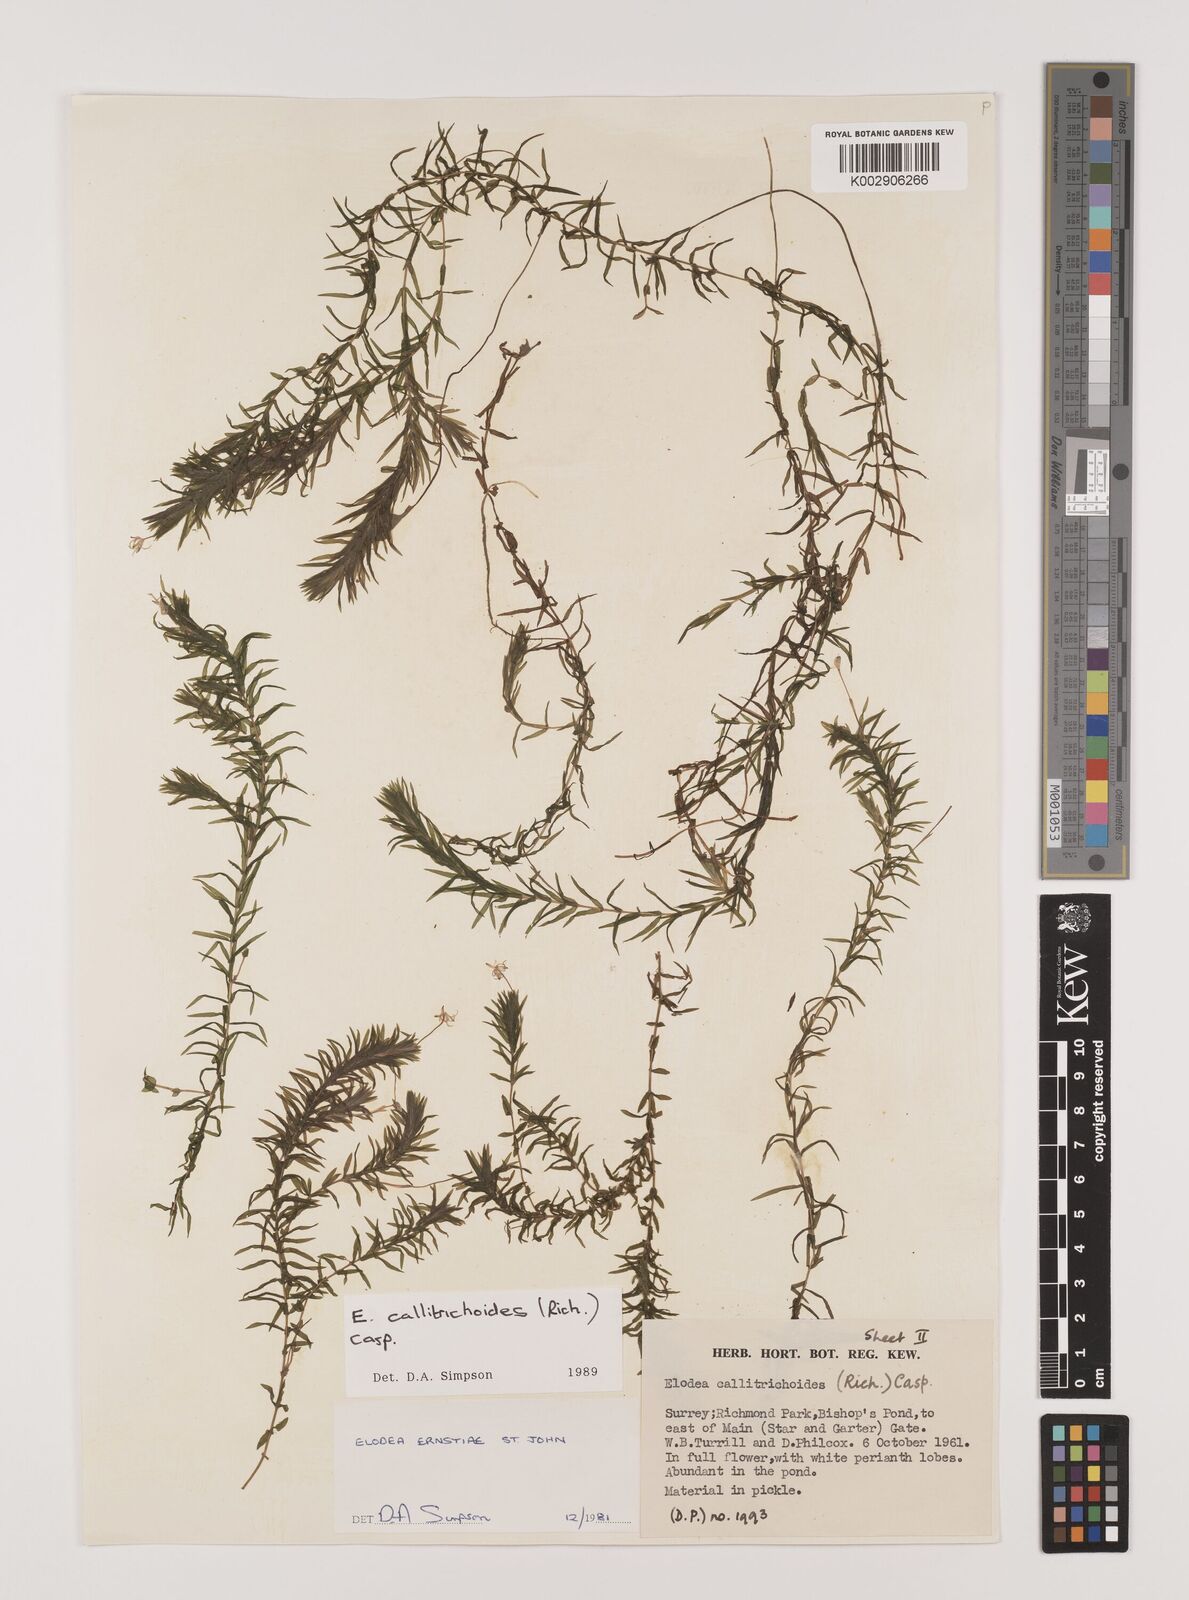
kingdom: Plantae
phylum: Tracheophyta
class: Liliopsida
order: Alismatales
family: Hydrocharitaceae
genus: Elodea
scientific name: Elodea callitrichoides
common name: South american waterweed
